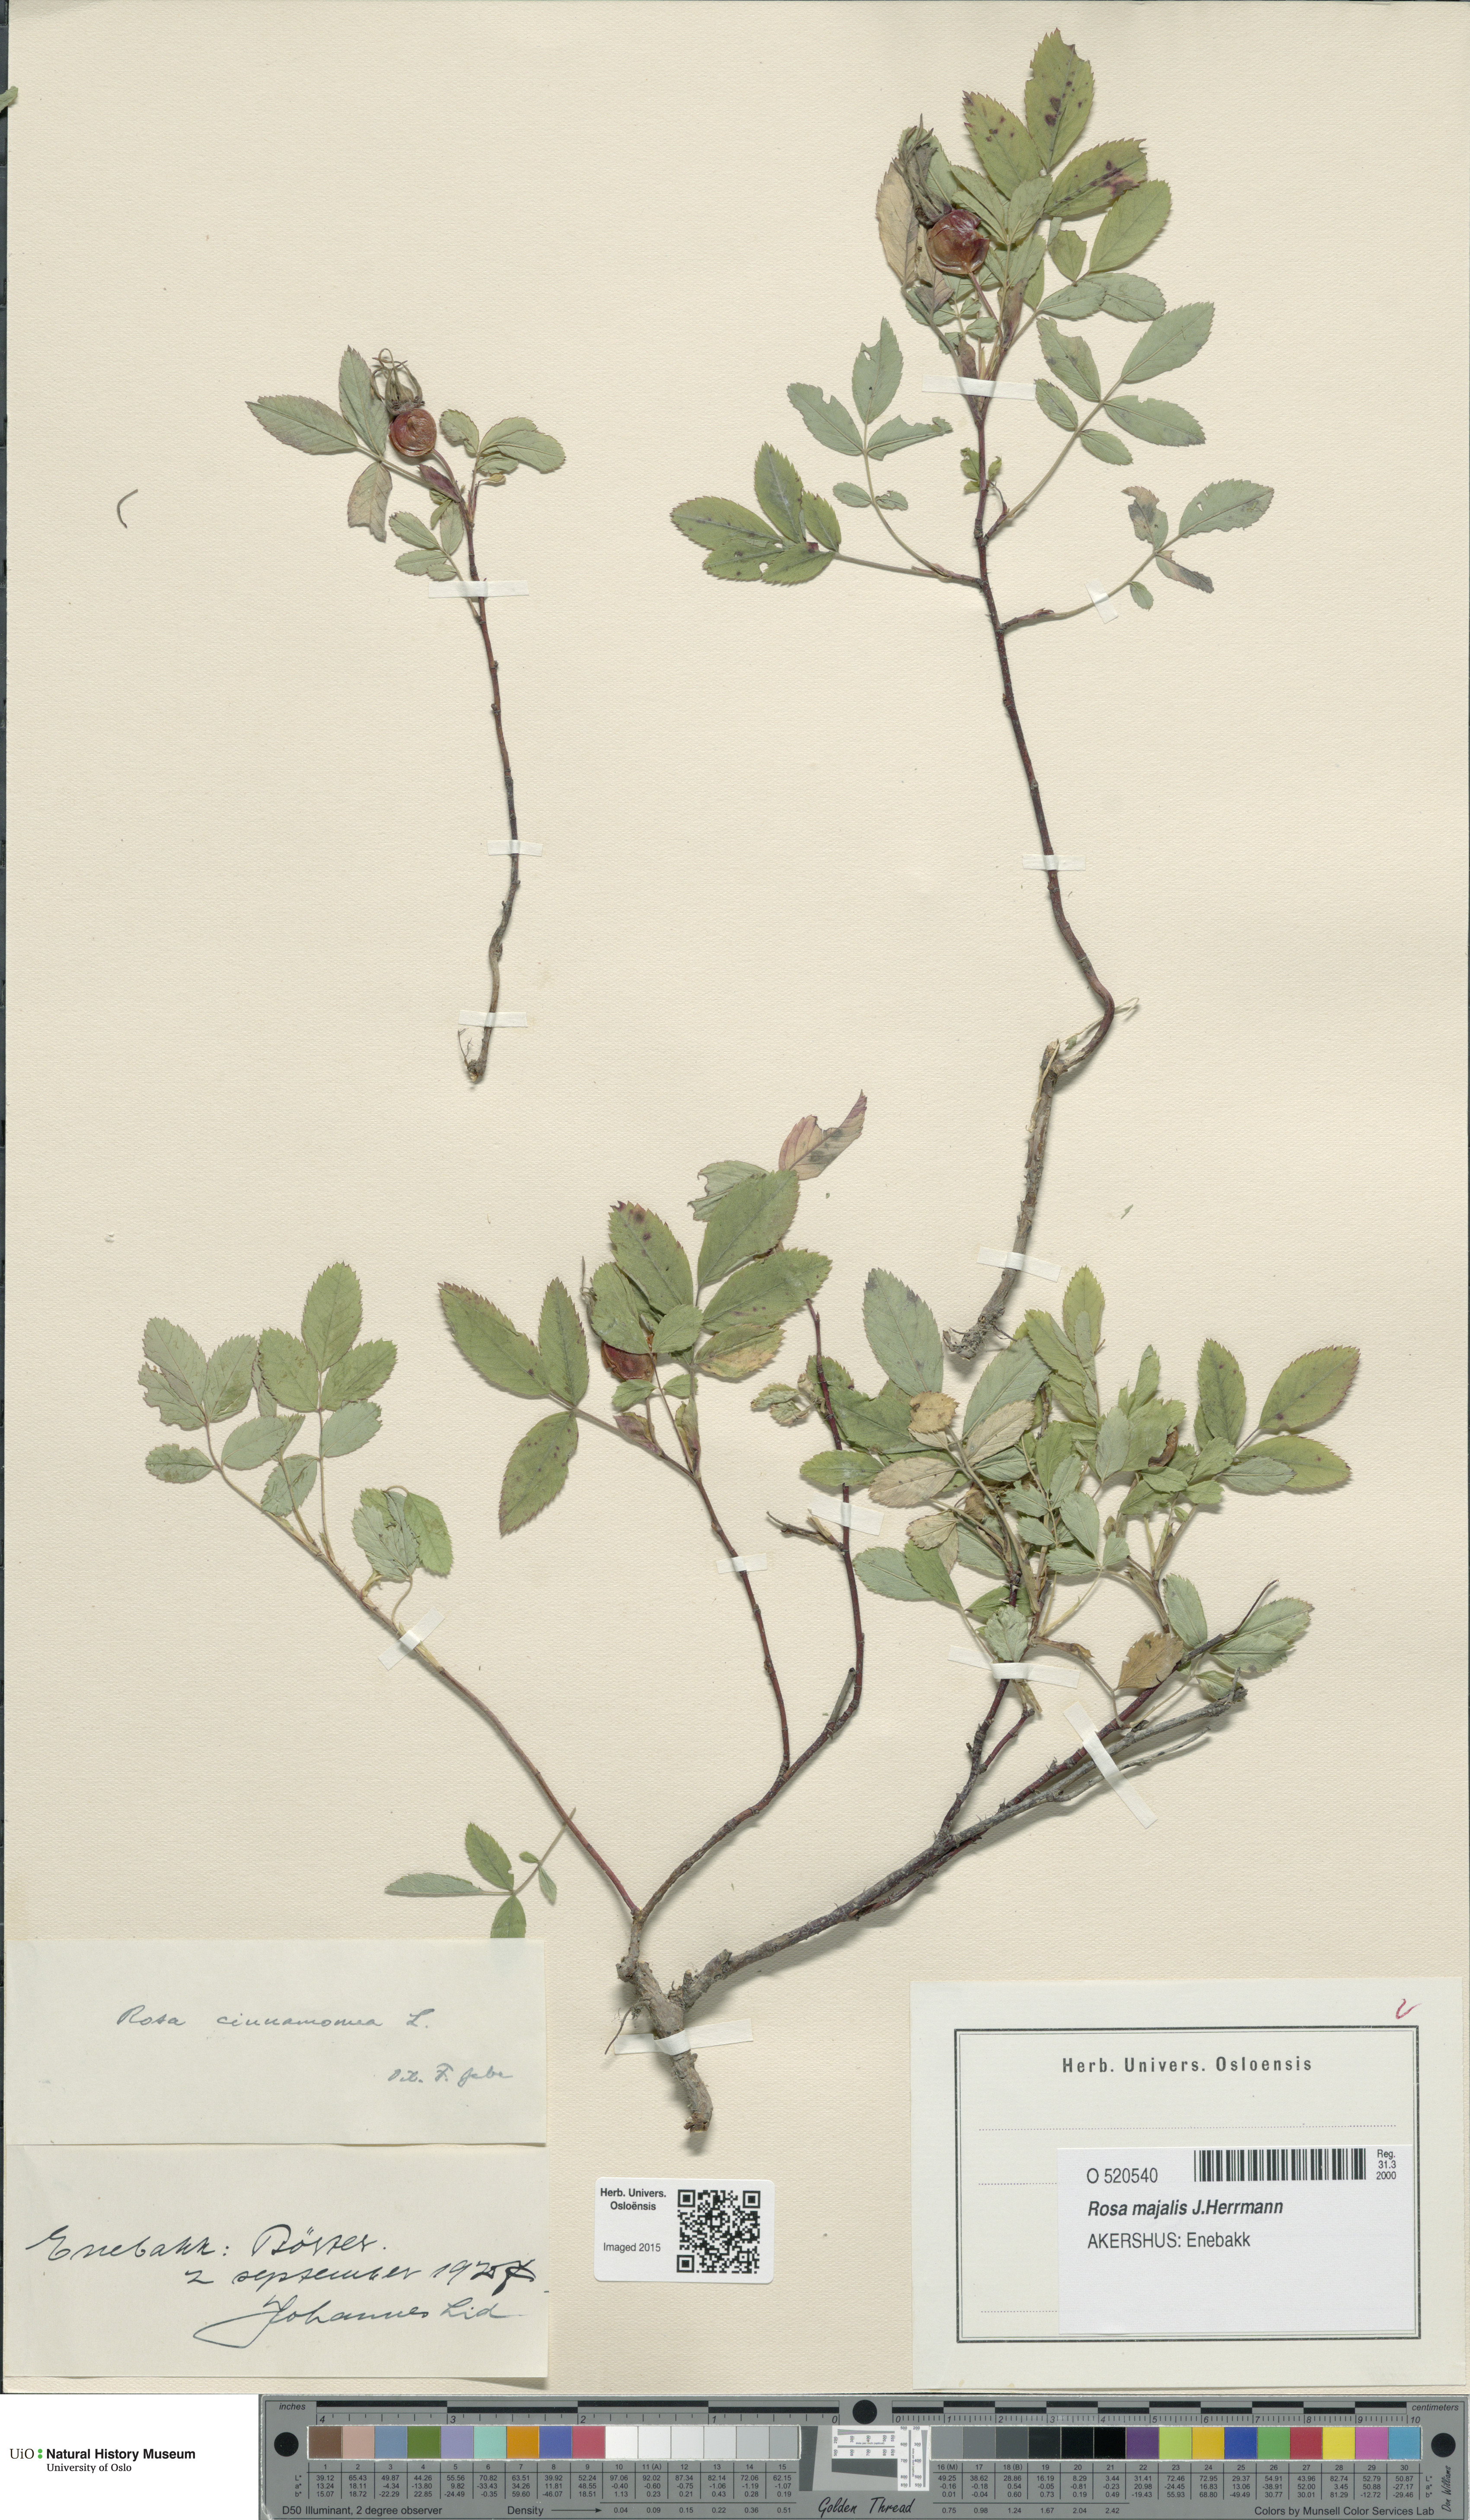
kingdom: Plantae
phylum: Tracheophyta
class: Magnoliopsida
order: Rosales
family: Rosaceae
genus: Rosa
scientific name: Rosa pendulina
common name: Alpine rose
